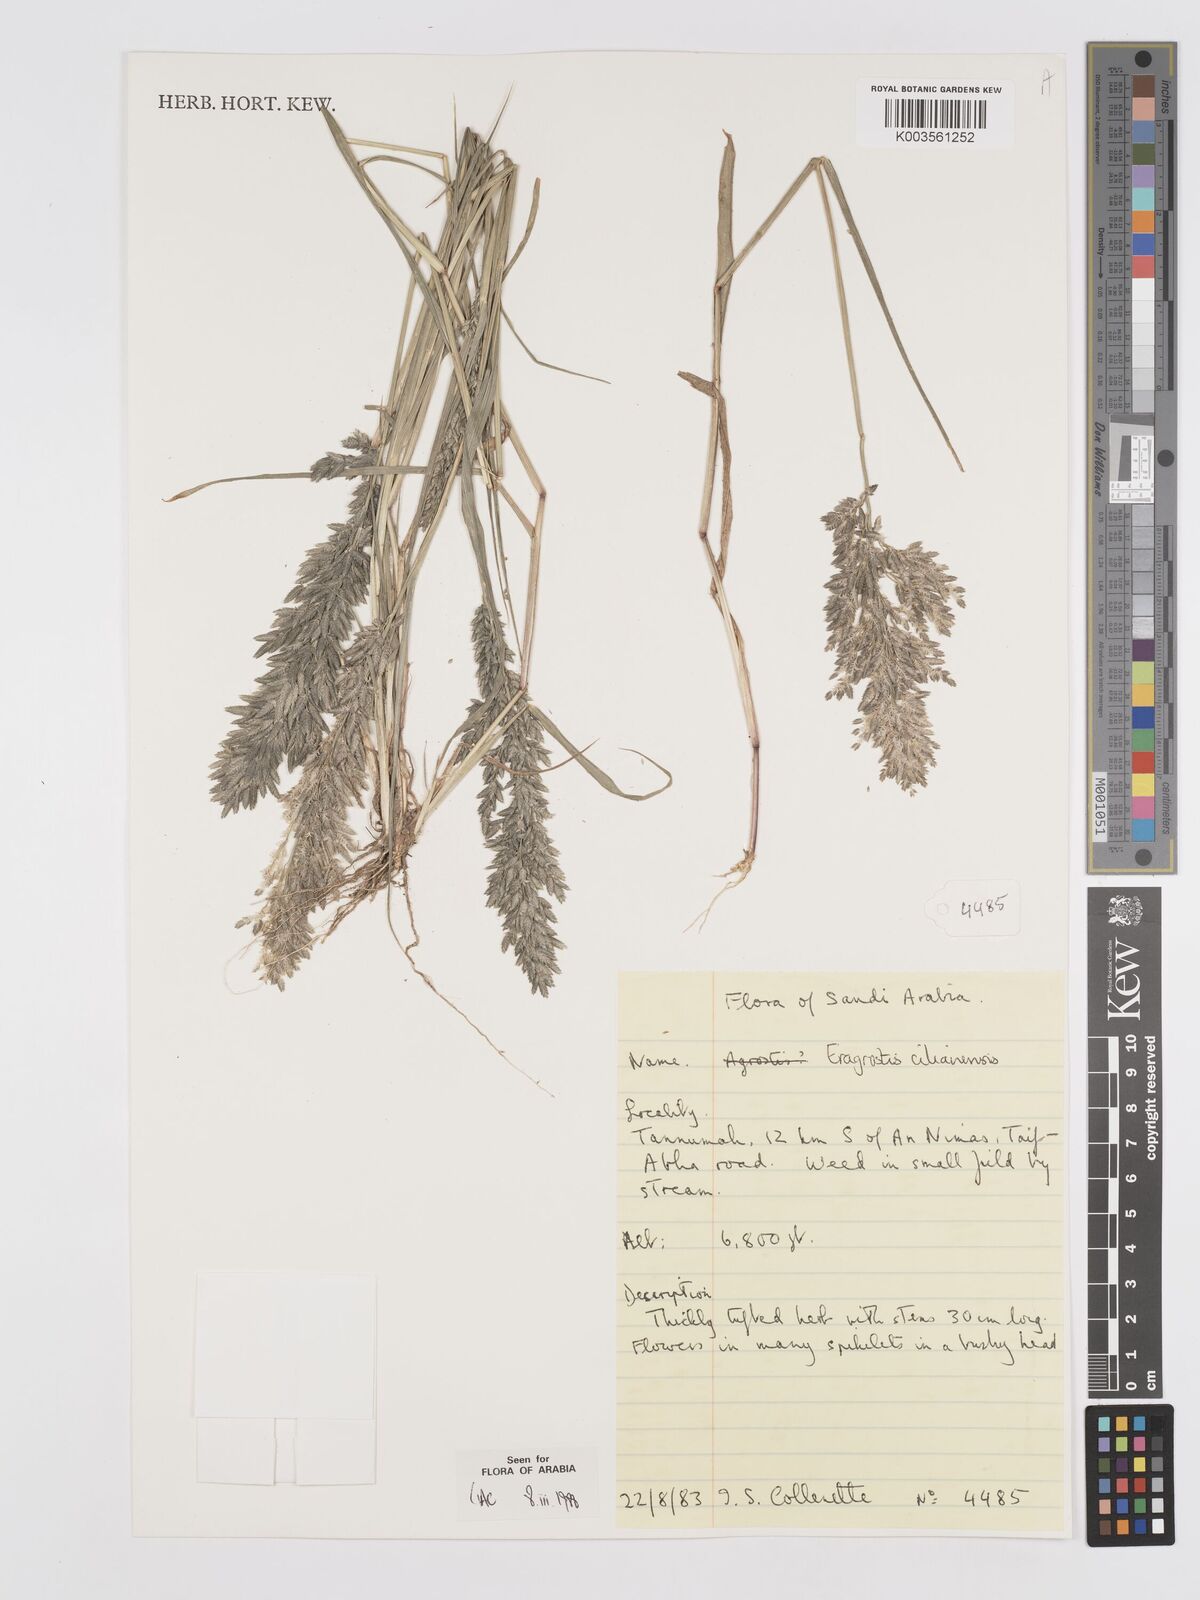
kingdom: Plantae
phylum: Tracheophyta
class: Liliopsida
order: Poales
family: Poaceae
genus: Eragrostis
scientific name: Eragrostis cilianensis
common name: Stinkgrass
